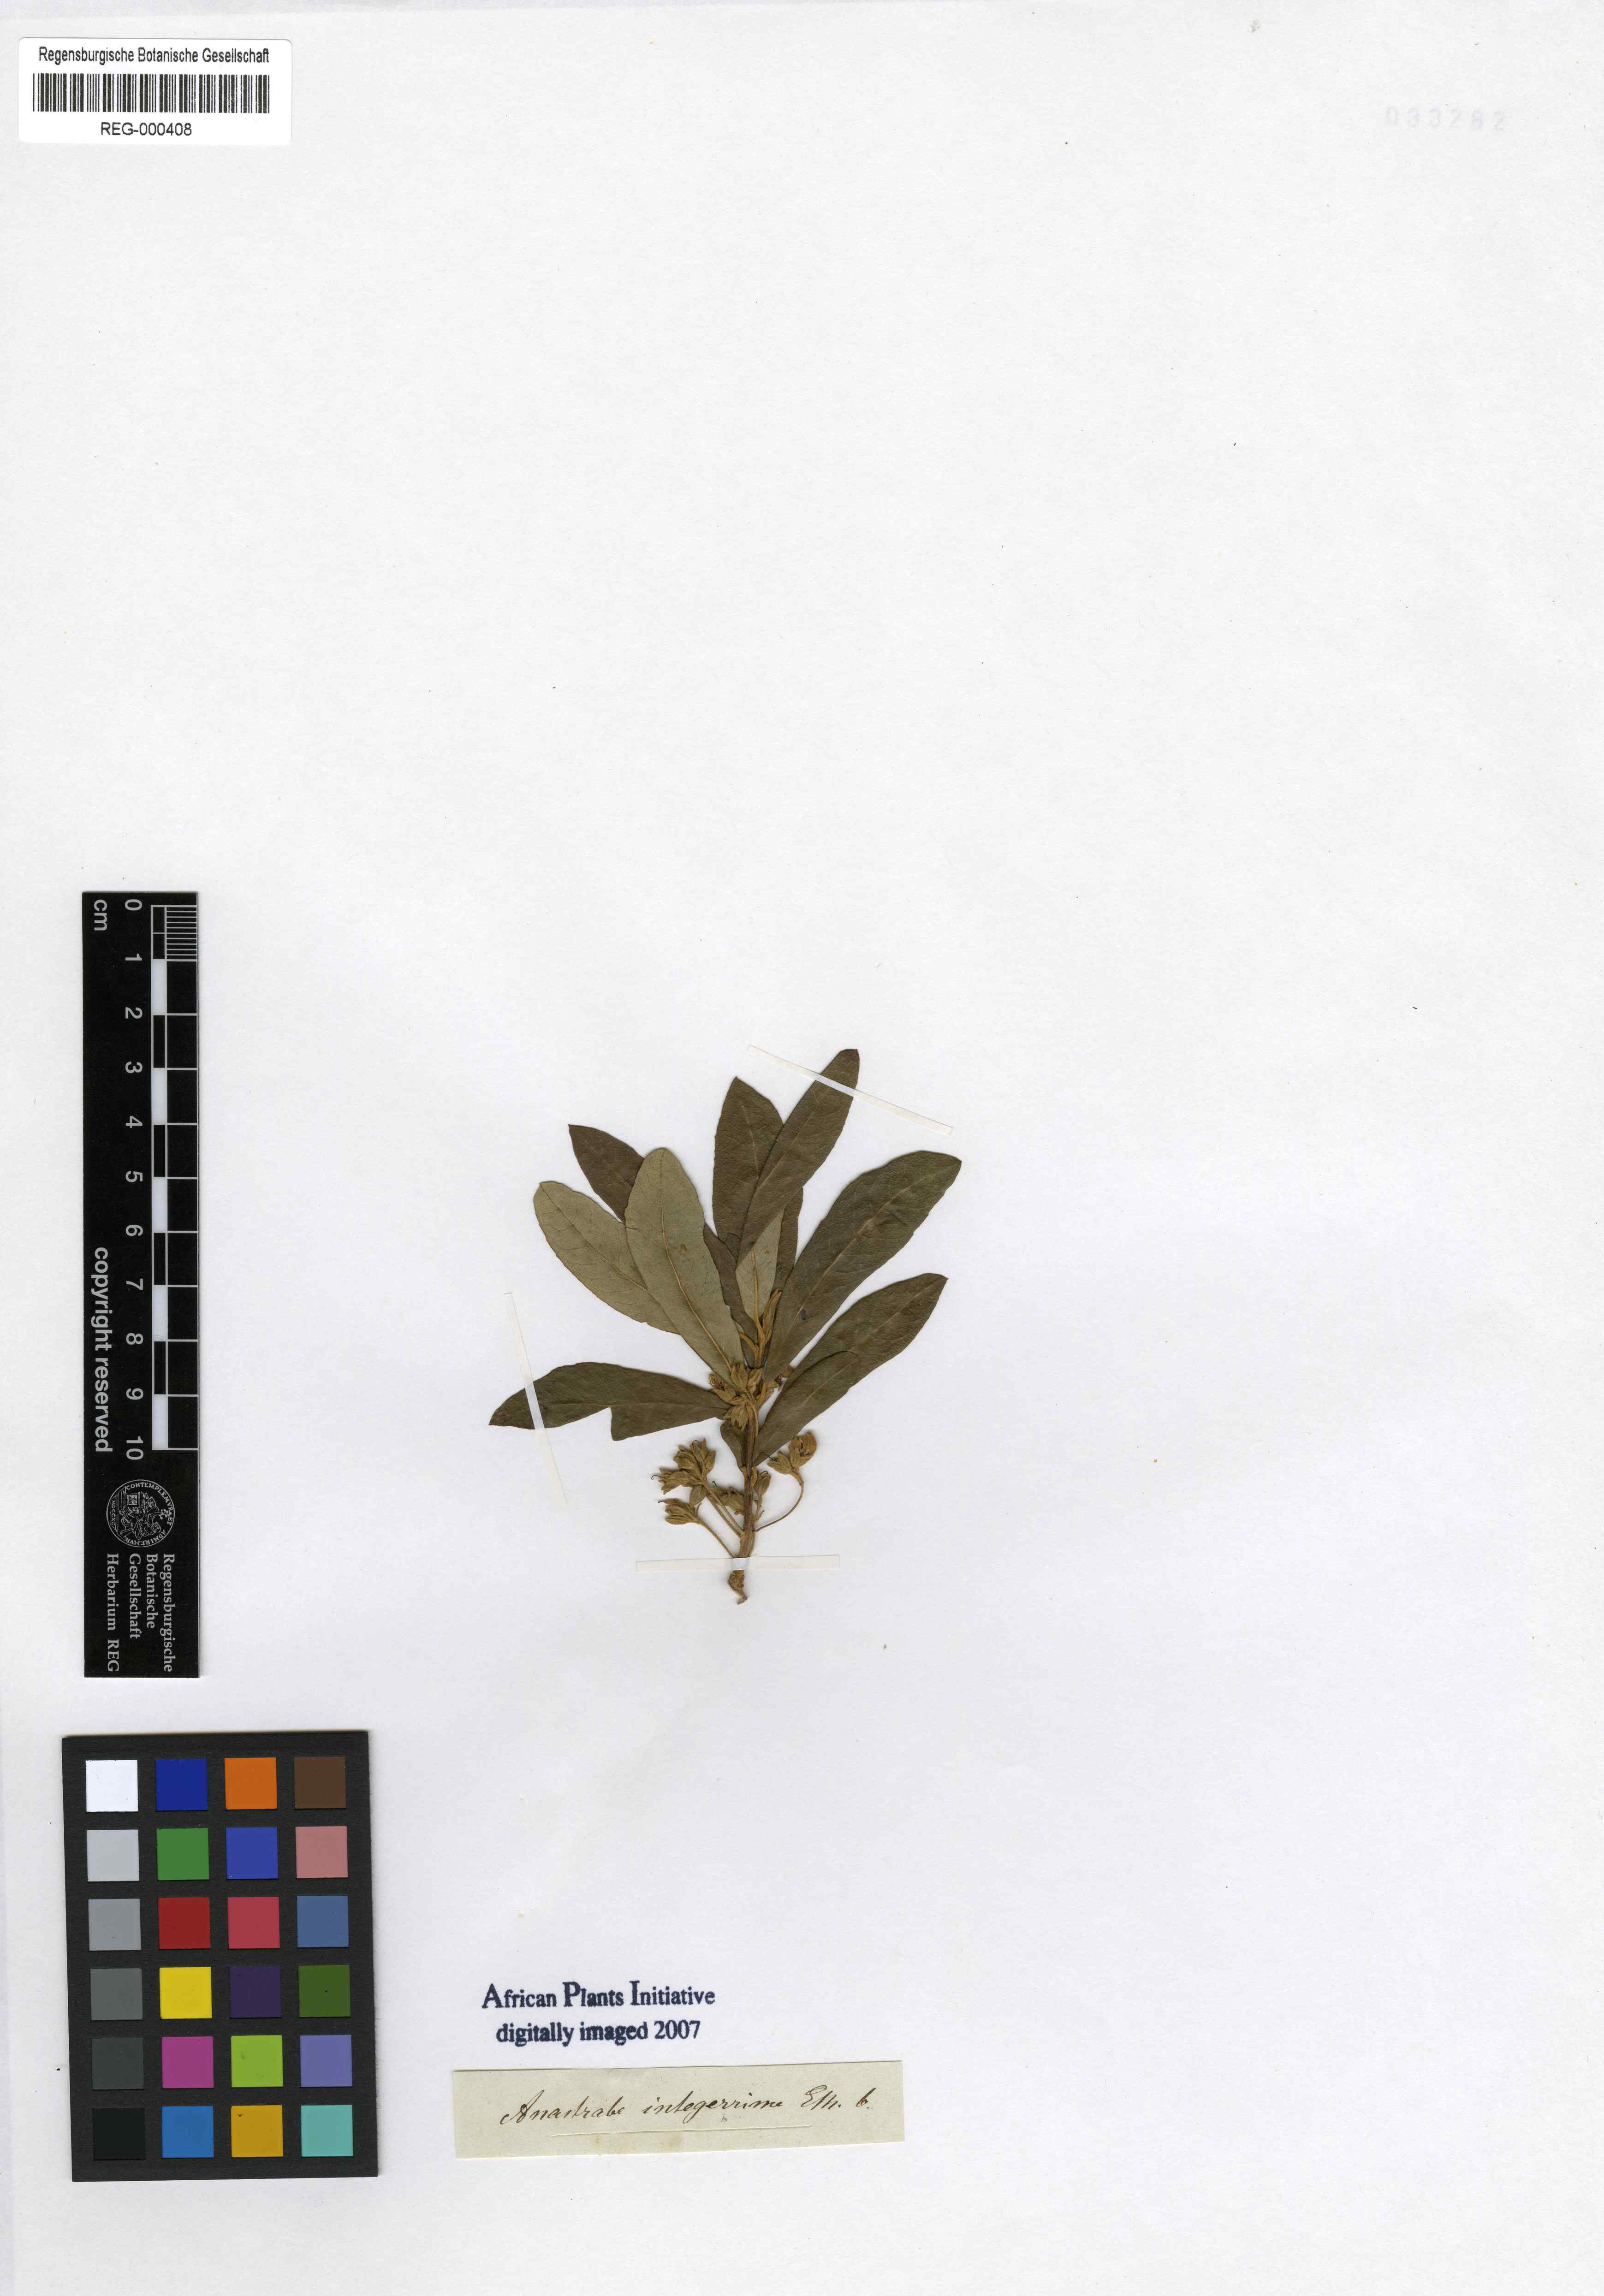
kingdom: Plantae
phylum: Tracheophyta
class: Magnoliopsida
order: Lamiales
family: Stilbaceae
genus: Anastrabe
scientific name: Anastrabe integerrima
